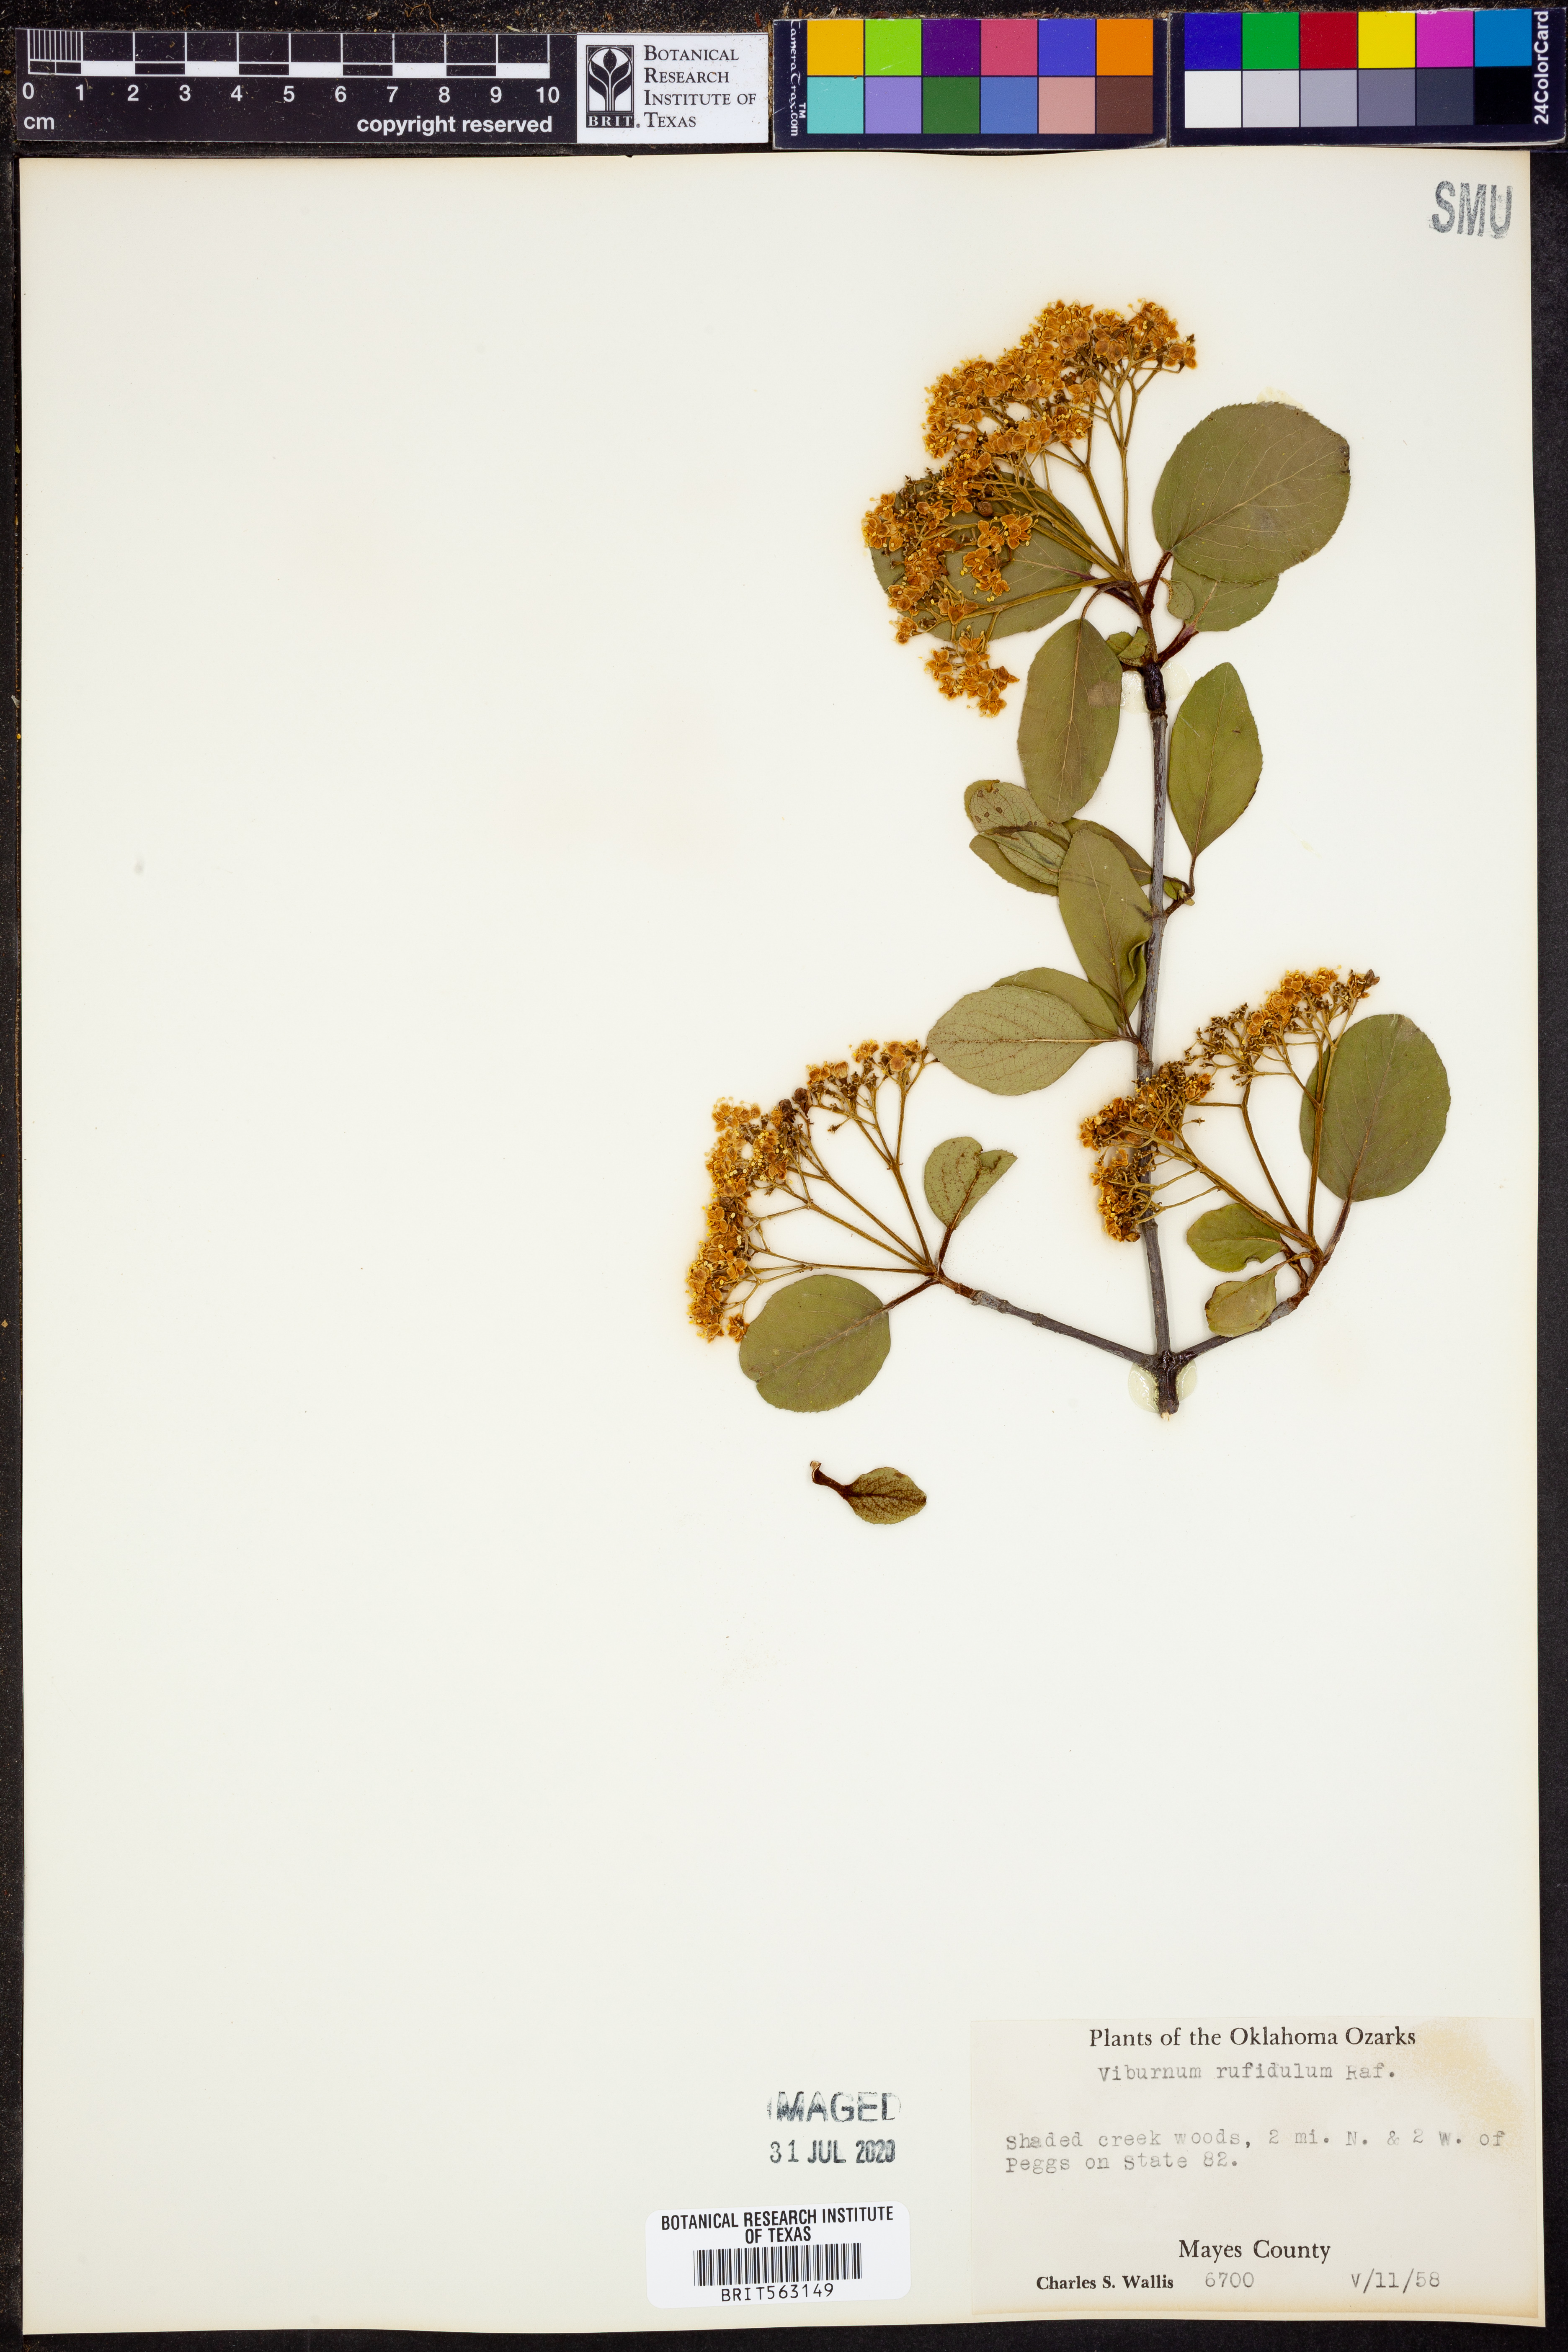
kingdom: Plantae
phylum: Tracheophyta
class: Magnoliopsida
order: Dipsacales
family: Viburnaceae
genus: Viburnum
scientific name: Viburnum rufidulum
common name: Blue haw
